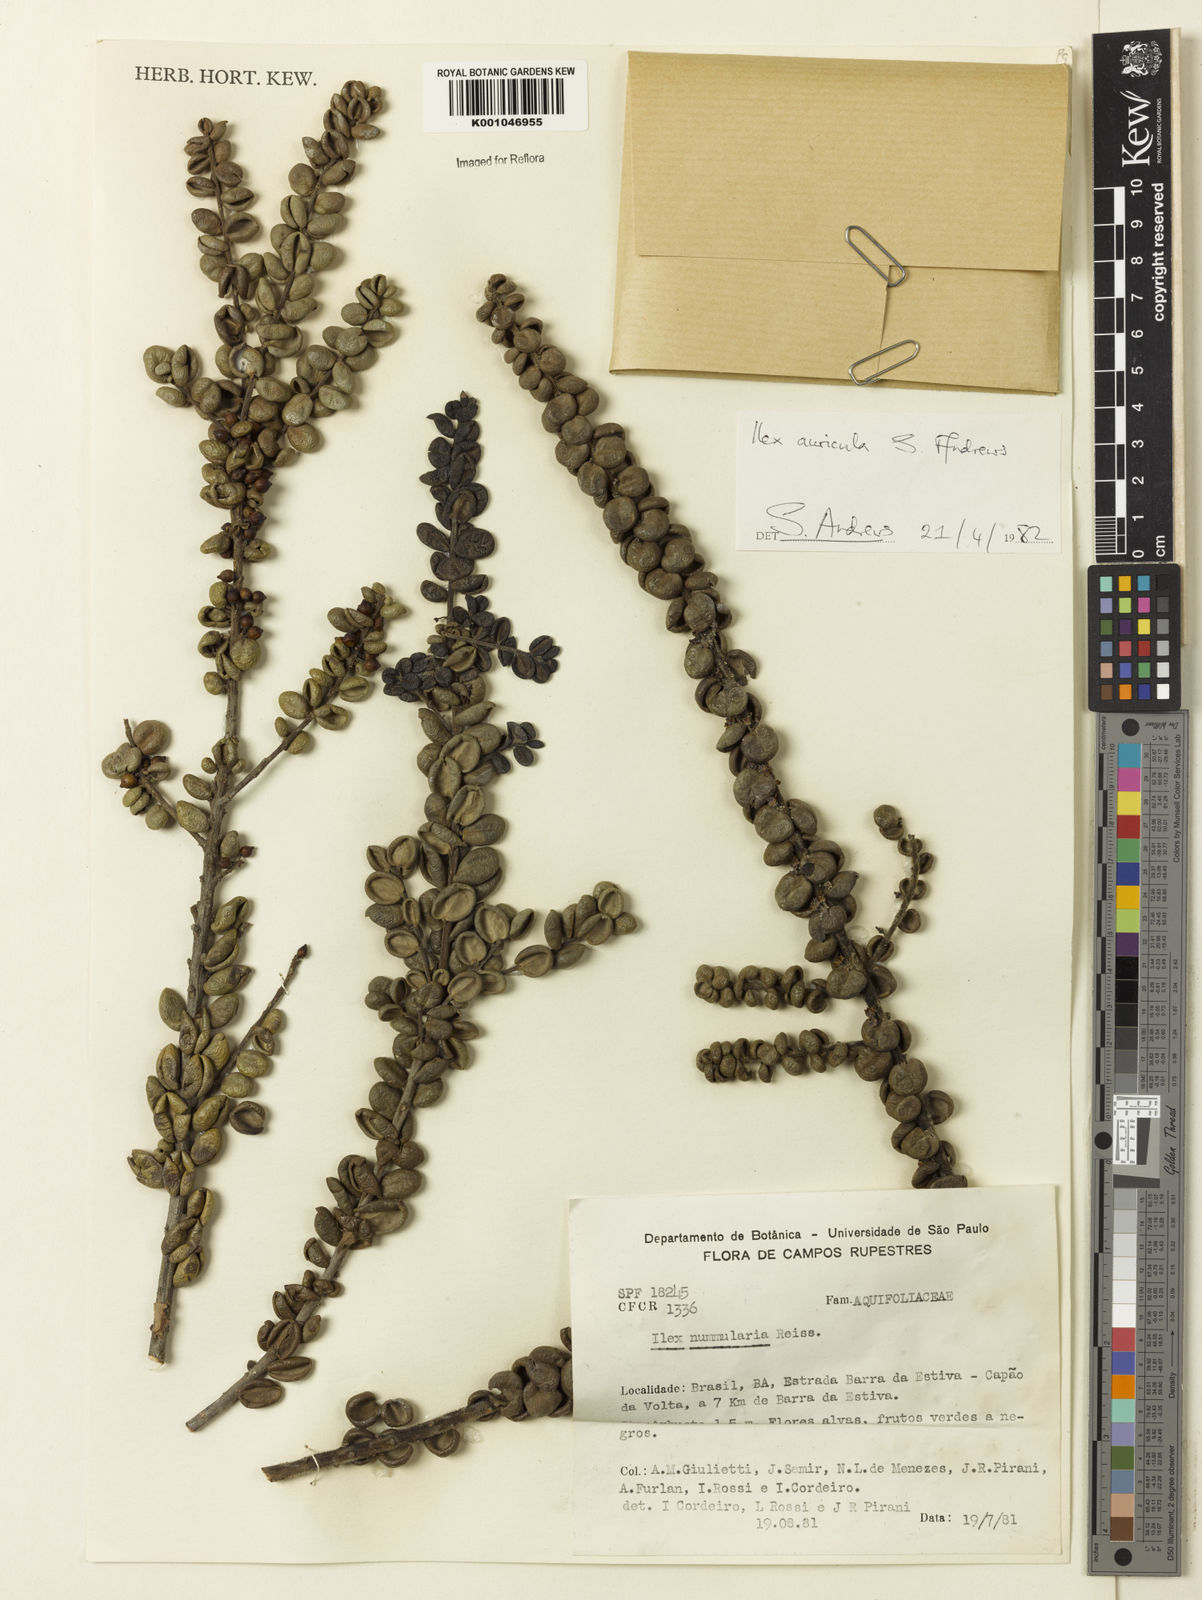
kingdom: Plantae
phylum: Tracheophyta
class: Magnoliopsida
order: Aquifoliales
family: Aquifoliaceae
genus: Ilex
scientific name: Ilex auricula
